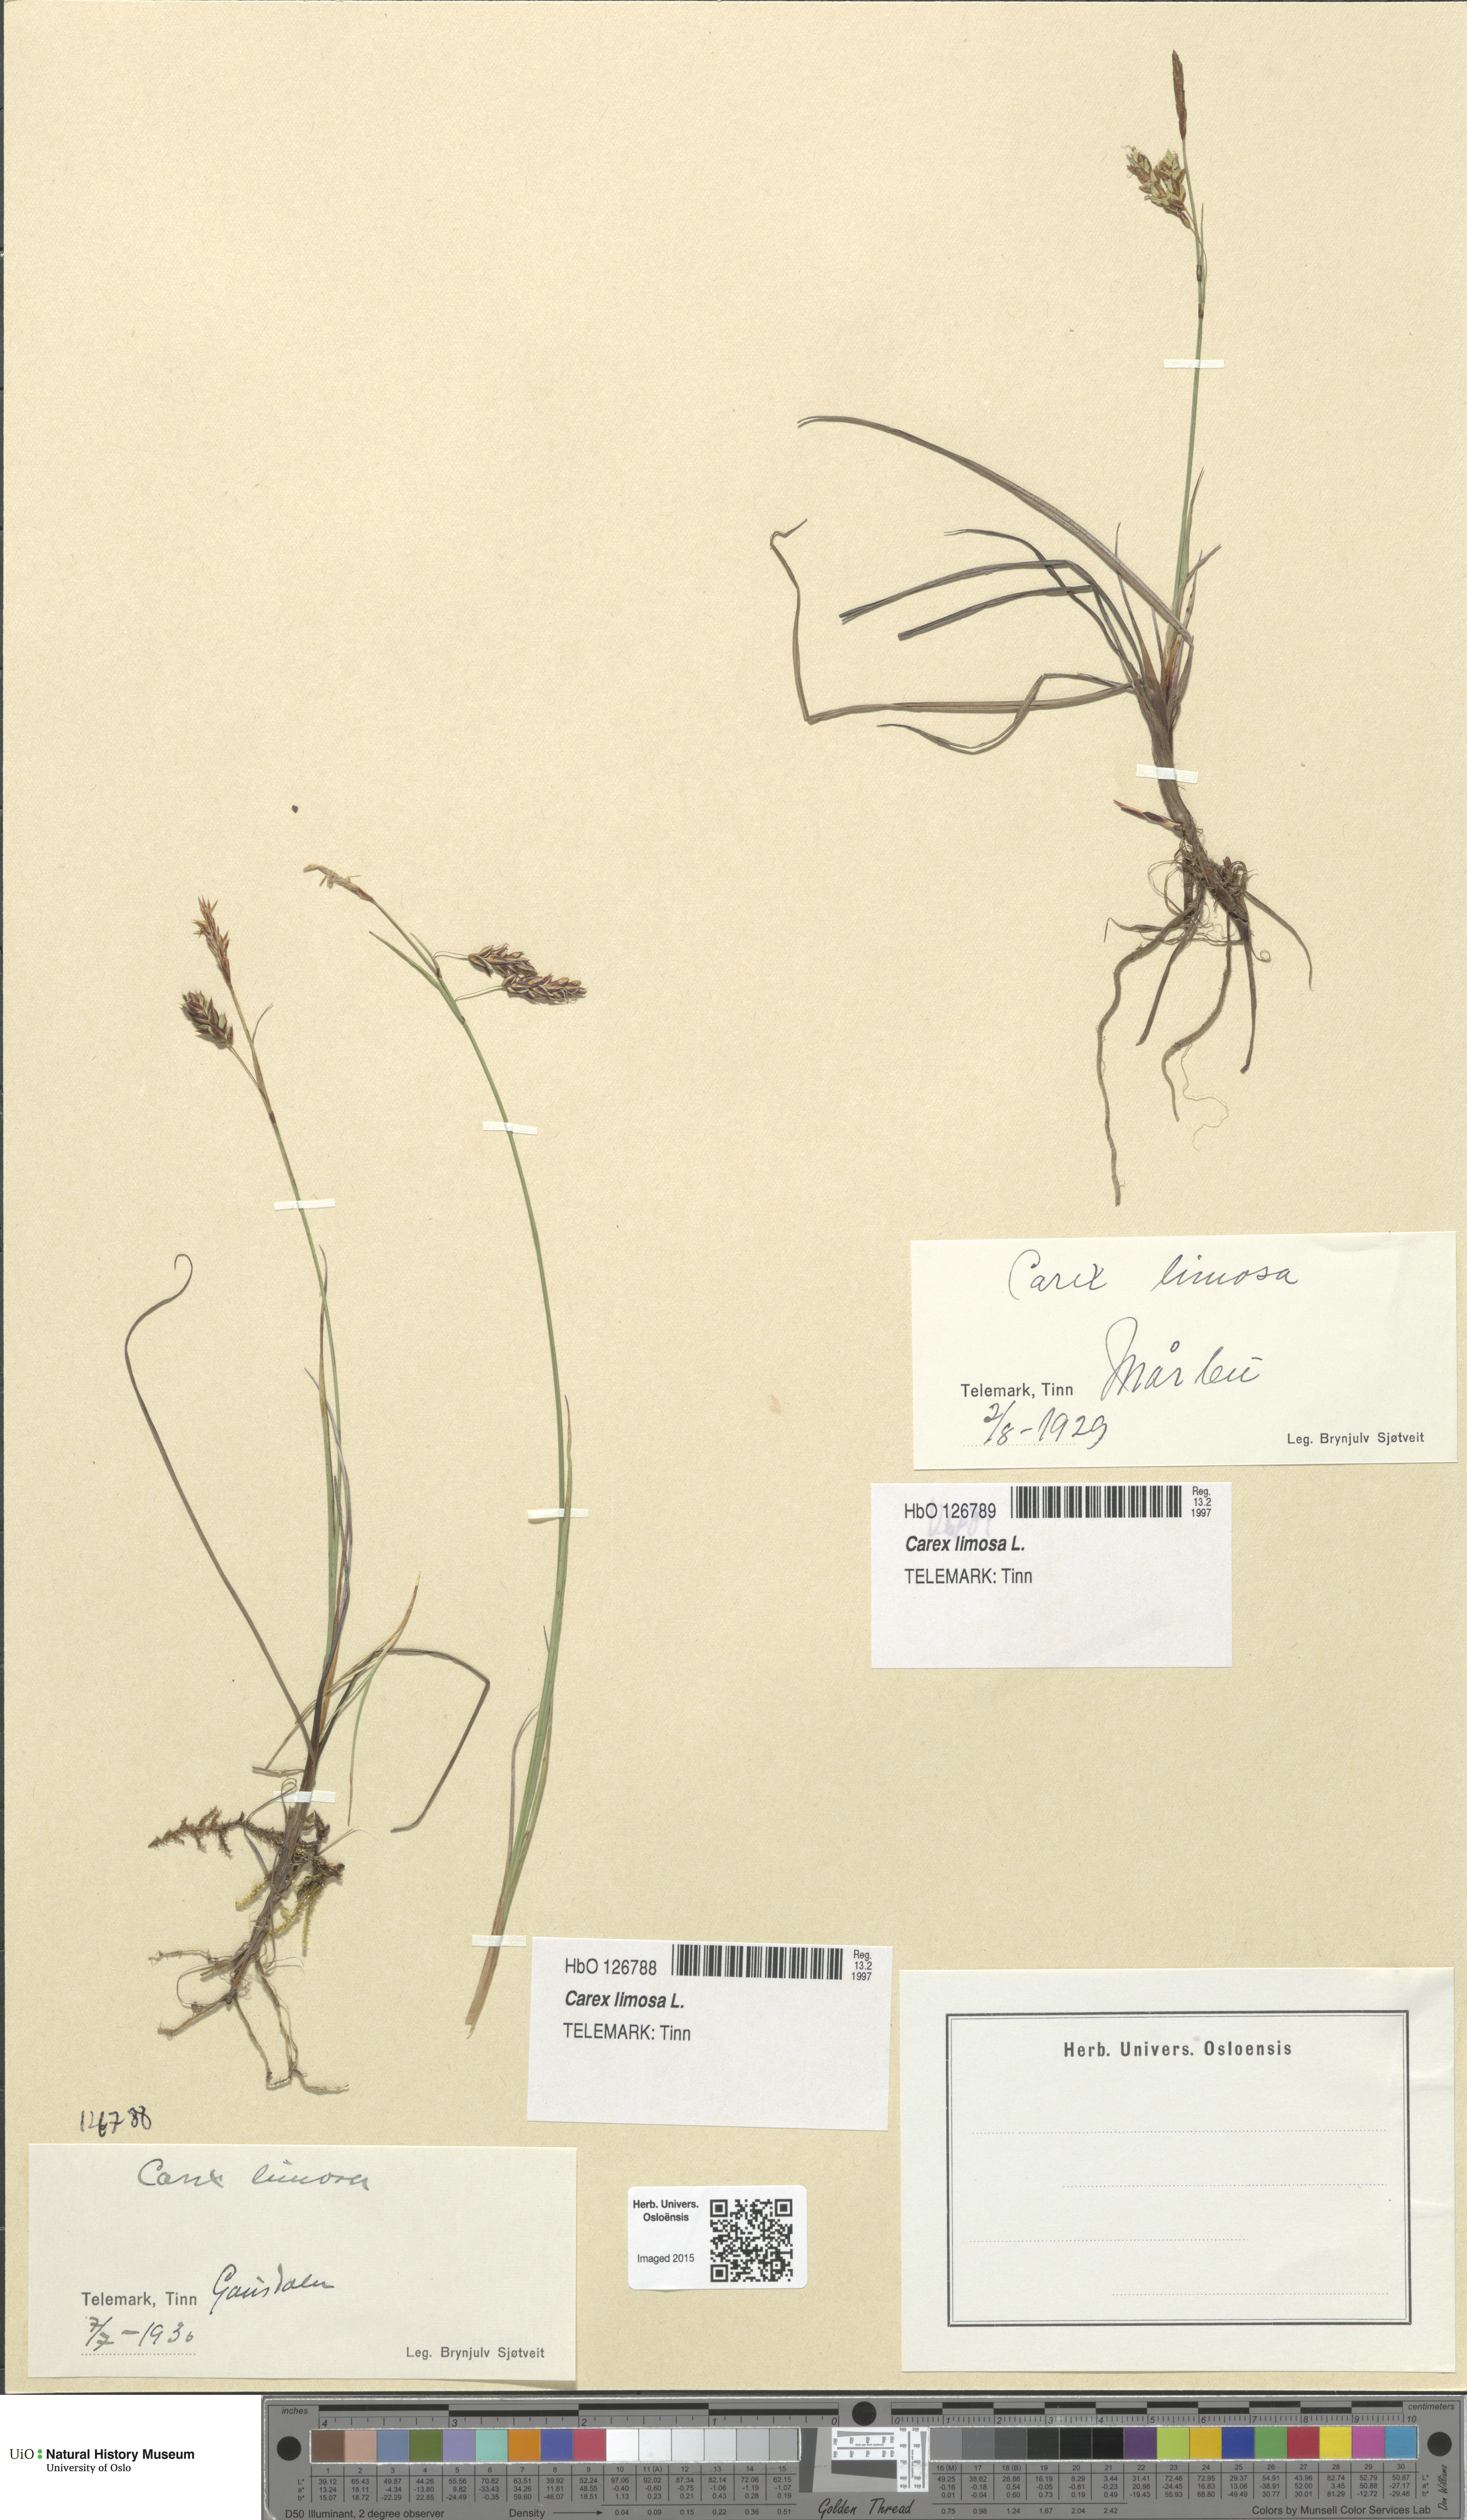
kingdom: Plantae
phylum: Tracheophyta
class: Liliopsida
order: Poales
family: Cyperaceae
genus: Carex
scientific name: Carex limosa
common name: Bog sedge
